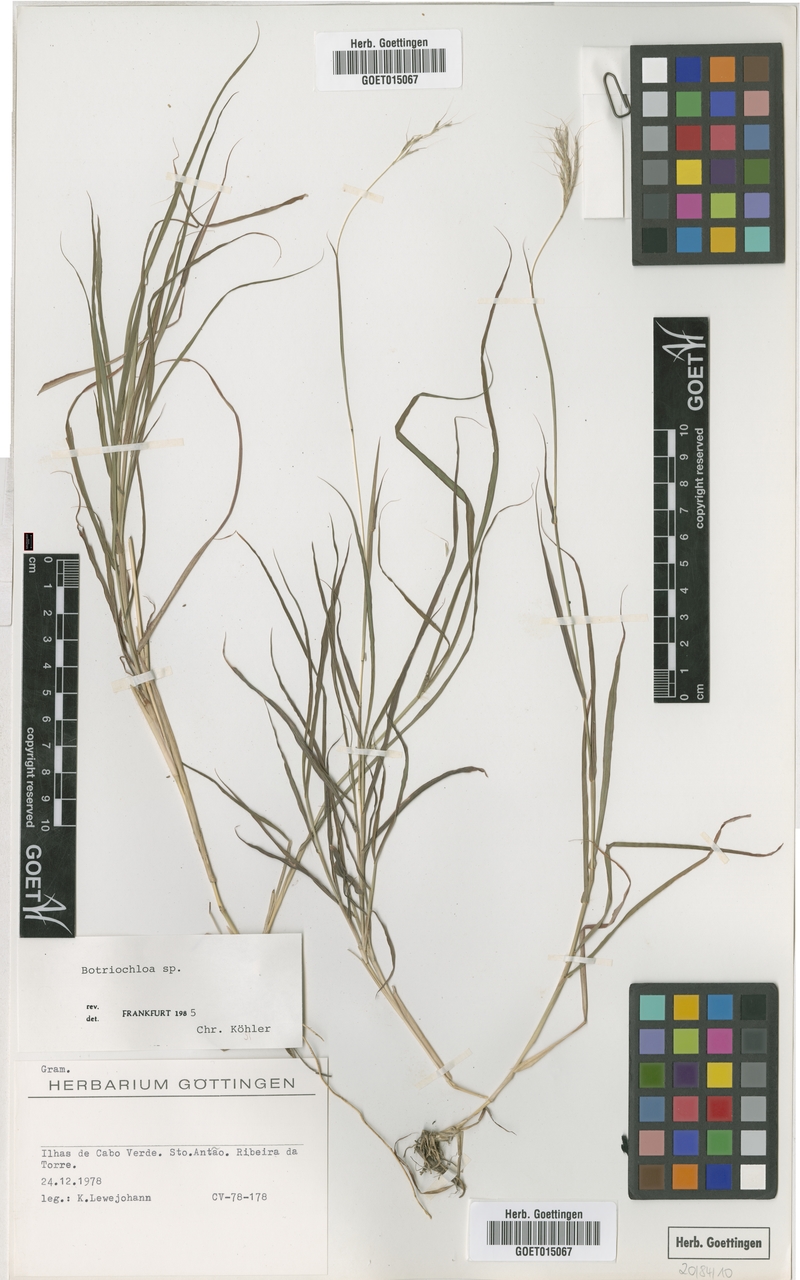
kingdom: Plantae
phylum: Tracheophyta
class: Liliopsida
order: Poales
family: Poaceae
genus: Bothriochloa
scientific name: Bothriochloa
